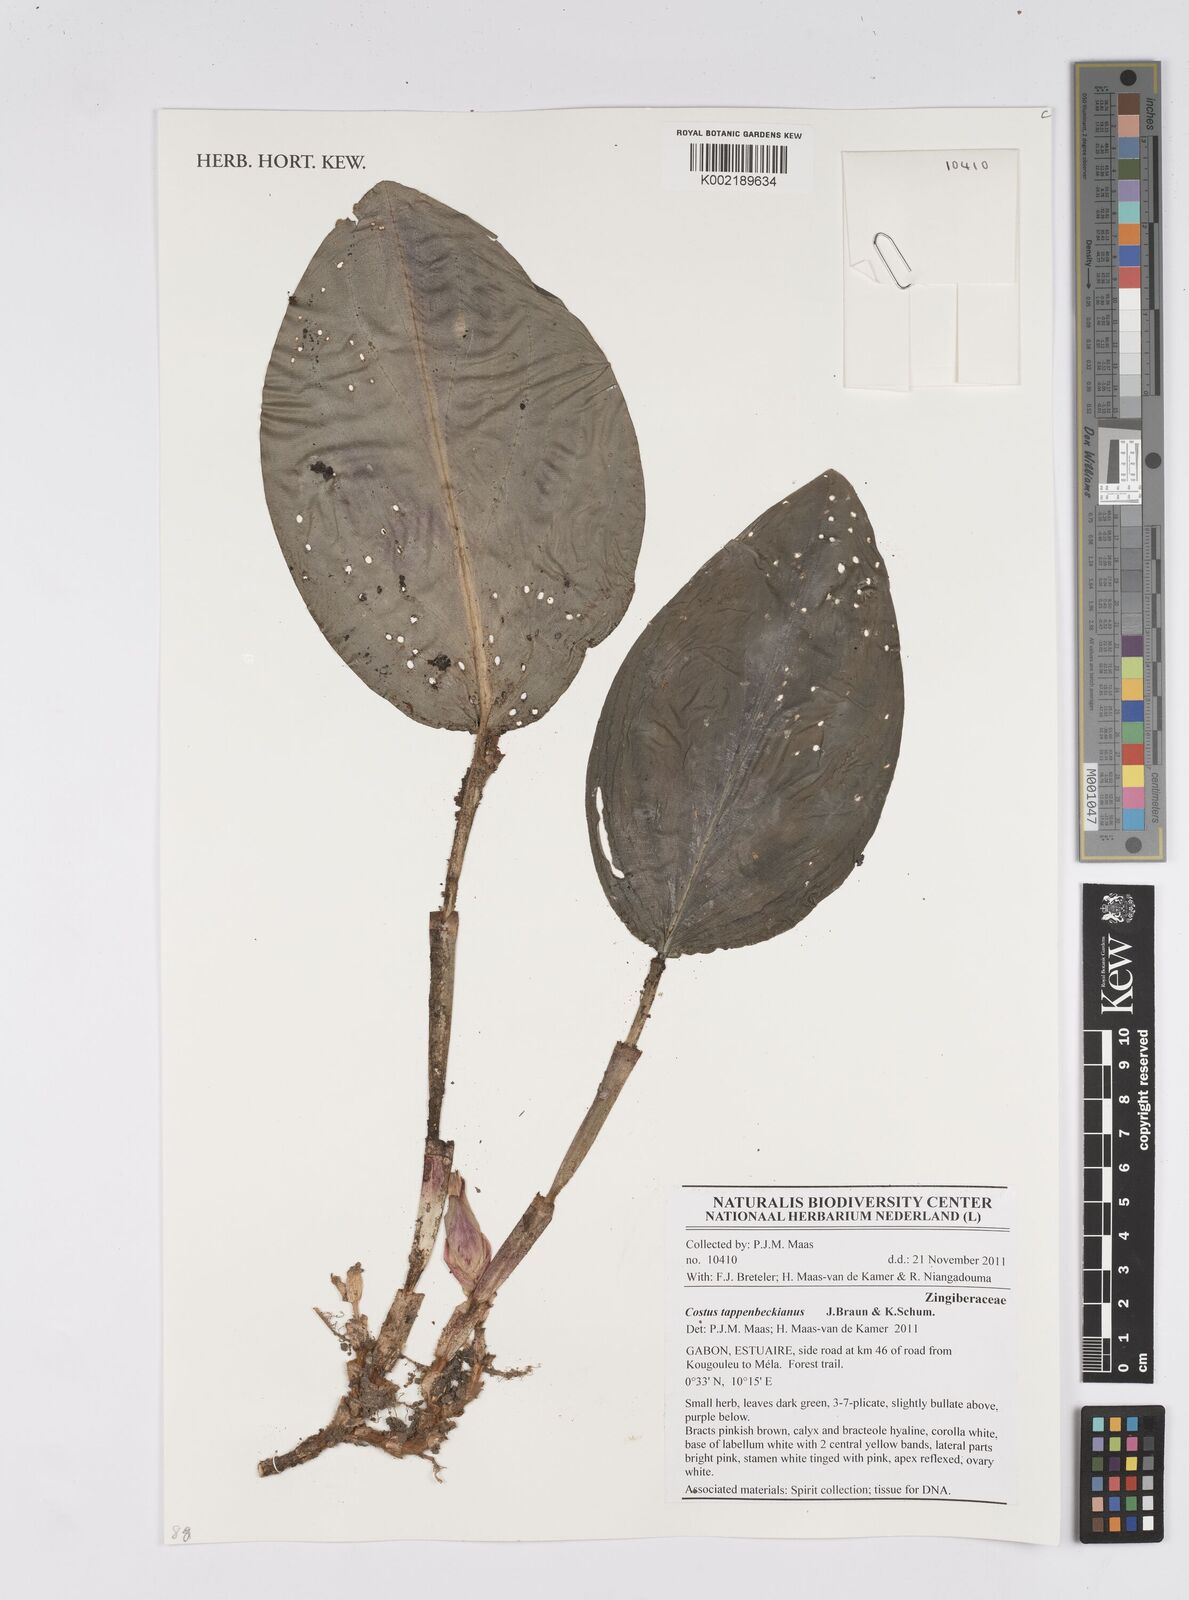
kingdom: Plantae
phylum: Tracheophyta
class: Liliopsida
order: Zingiberales
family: Costaceae
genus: Costus
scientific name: Costus tappenbeckianus
